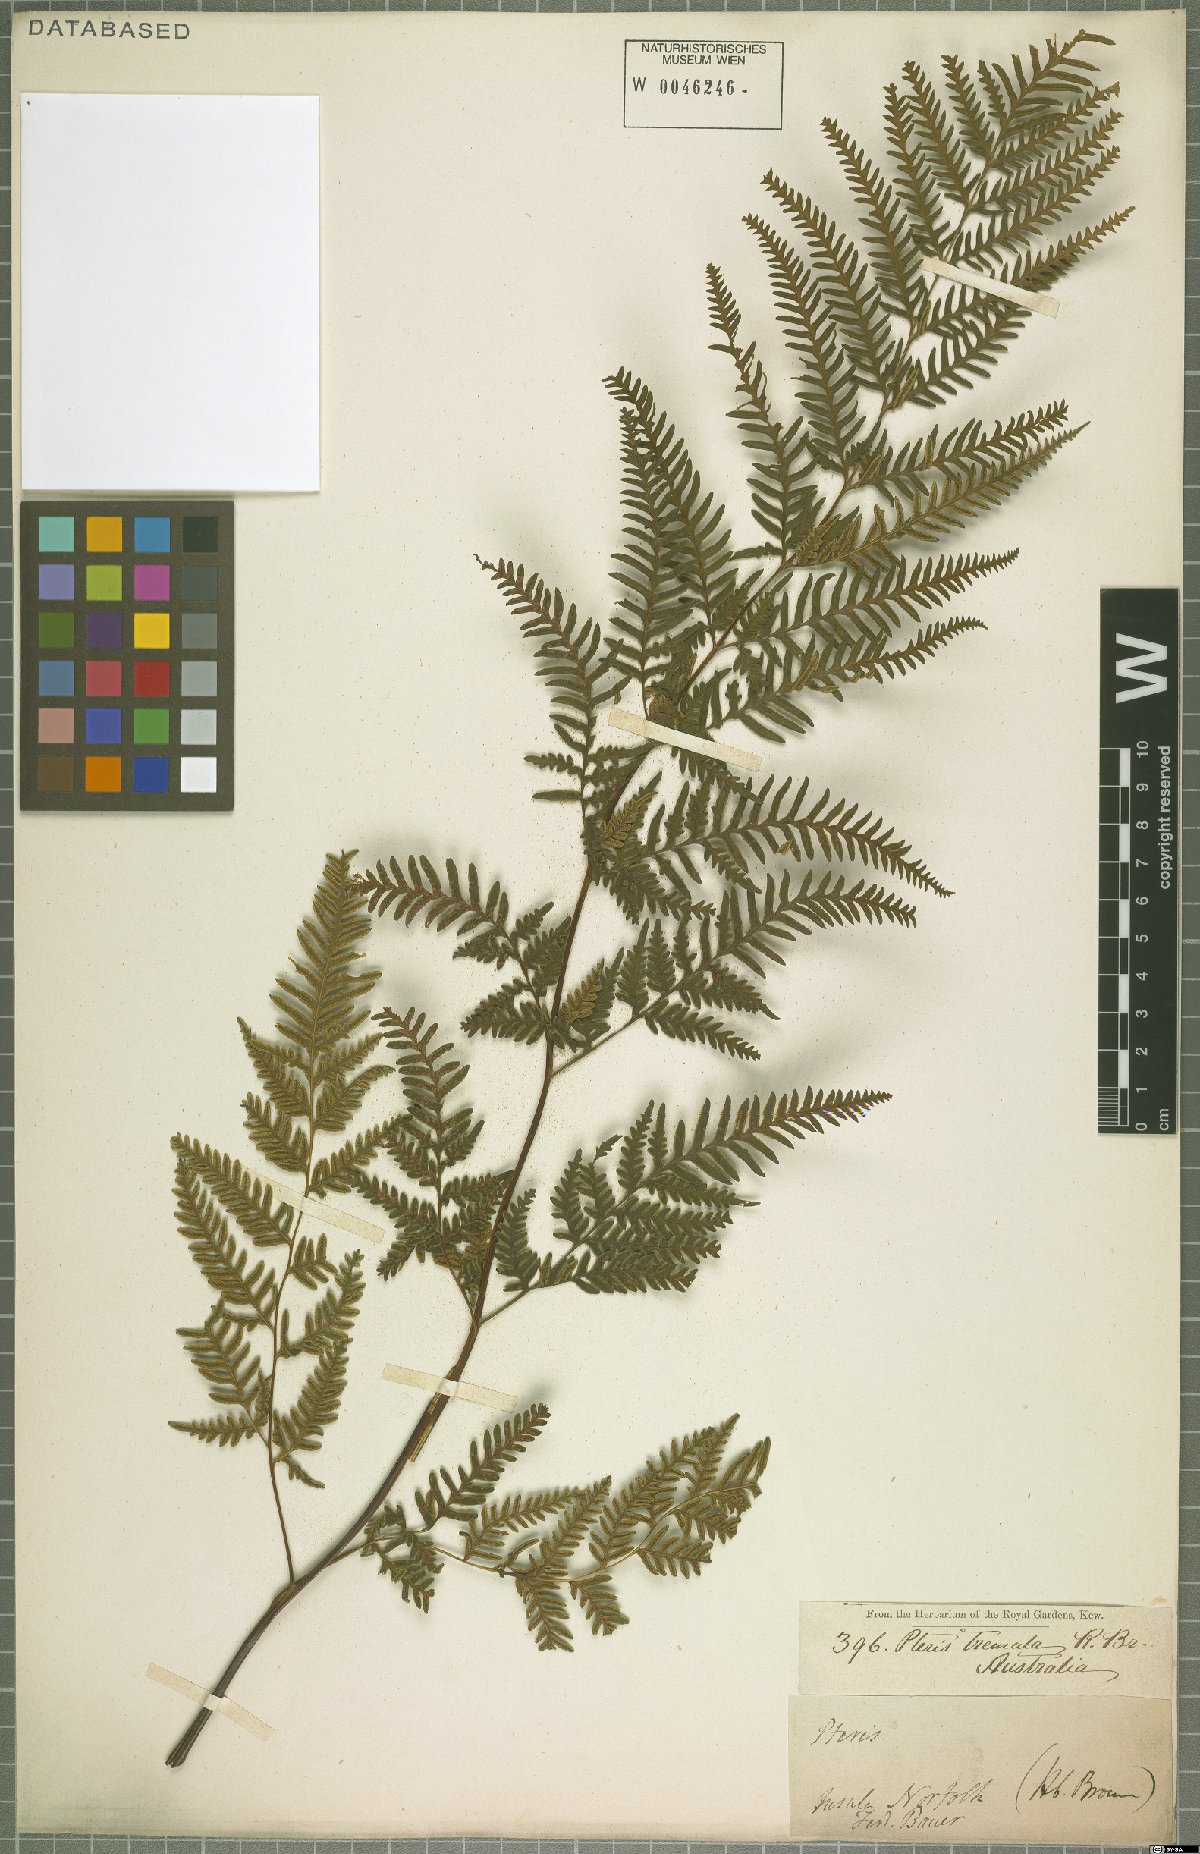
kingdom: Plantae
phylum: Tracheophyta
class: Polypodiopsida
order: Polypodiales
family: Pteridaceae
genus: Pteris
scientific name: Pteris tremula
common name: Australian brake
